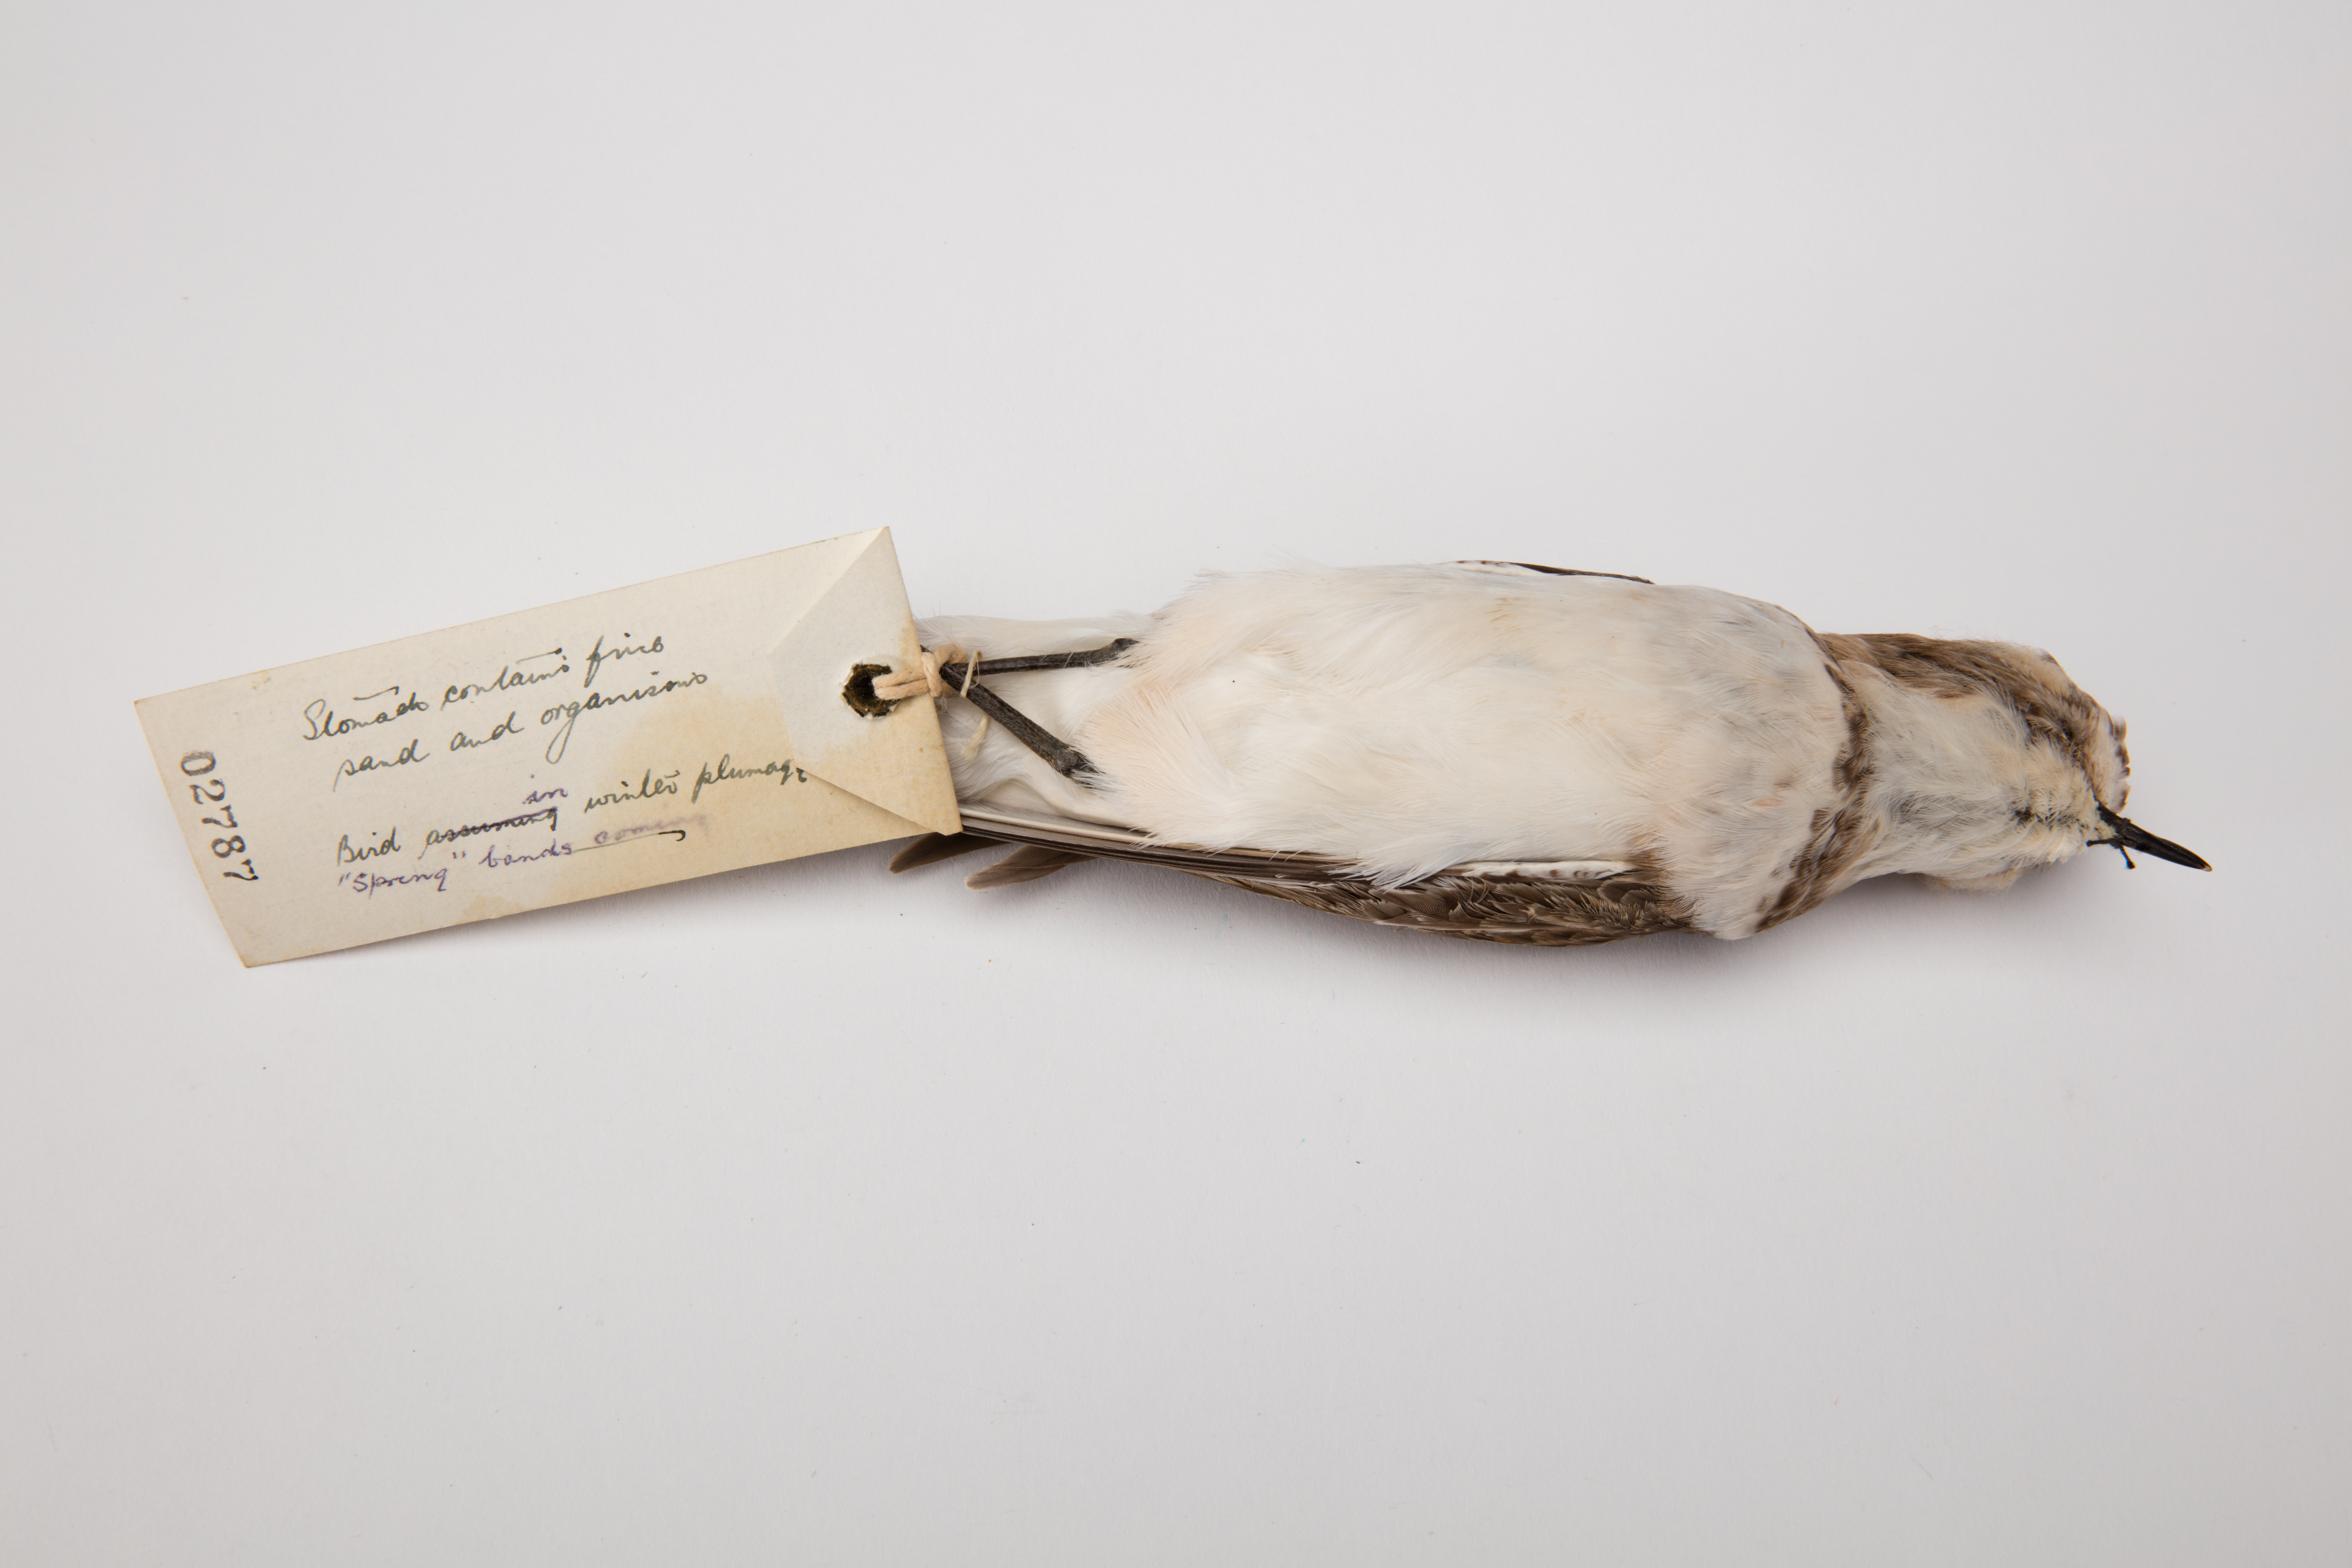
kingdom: Animalia
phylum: Chordata
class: Aves
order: Charadriiformes
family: Charadriidae
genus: Charadrius
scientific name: Charadrius bicinctus
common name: Double-banded plover
